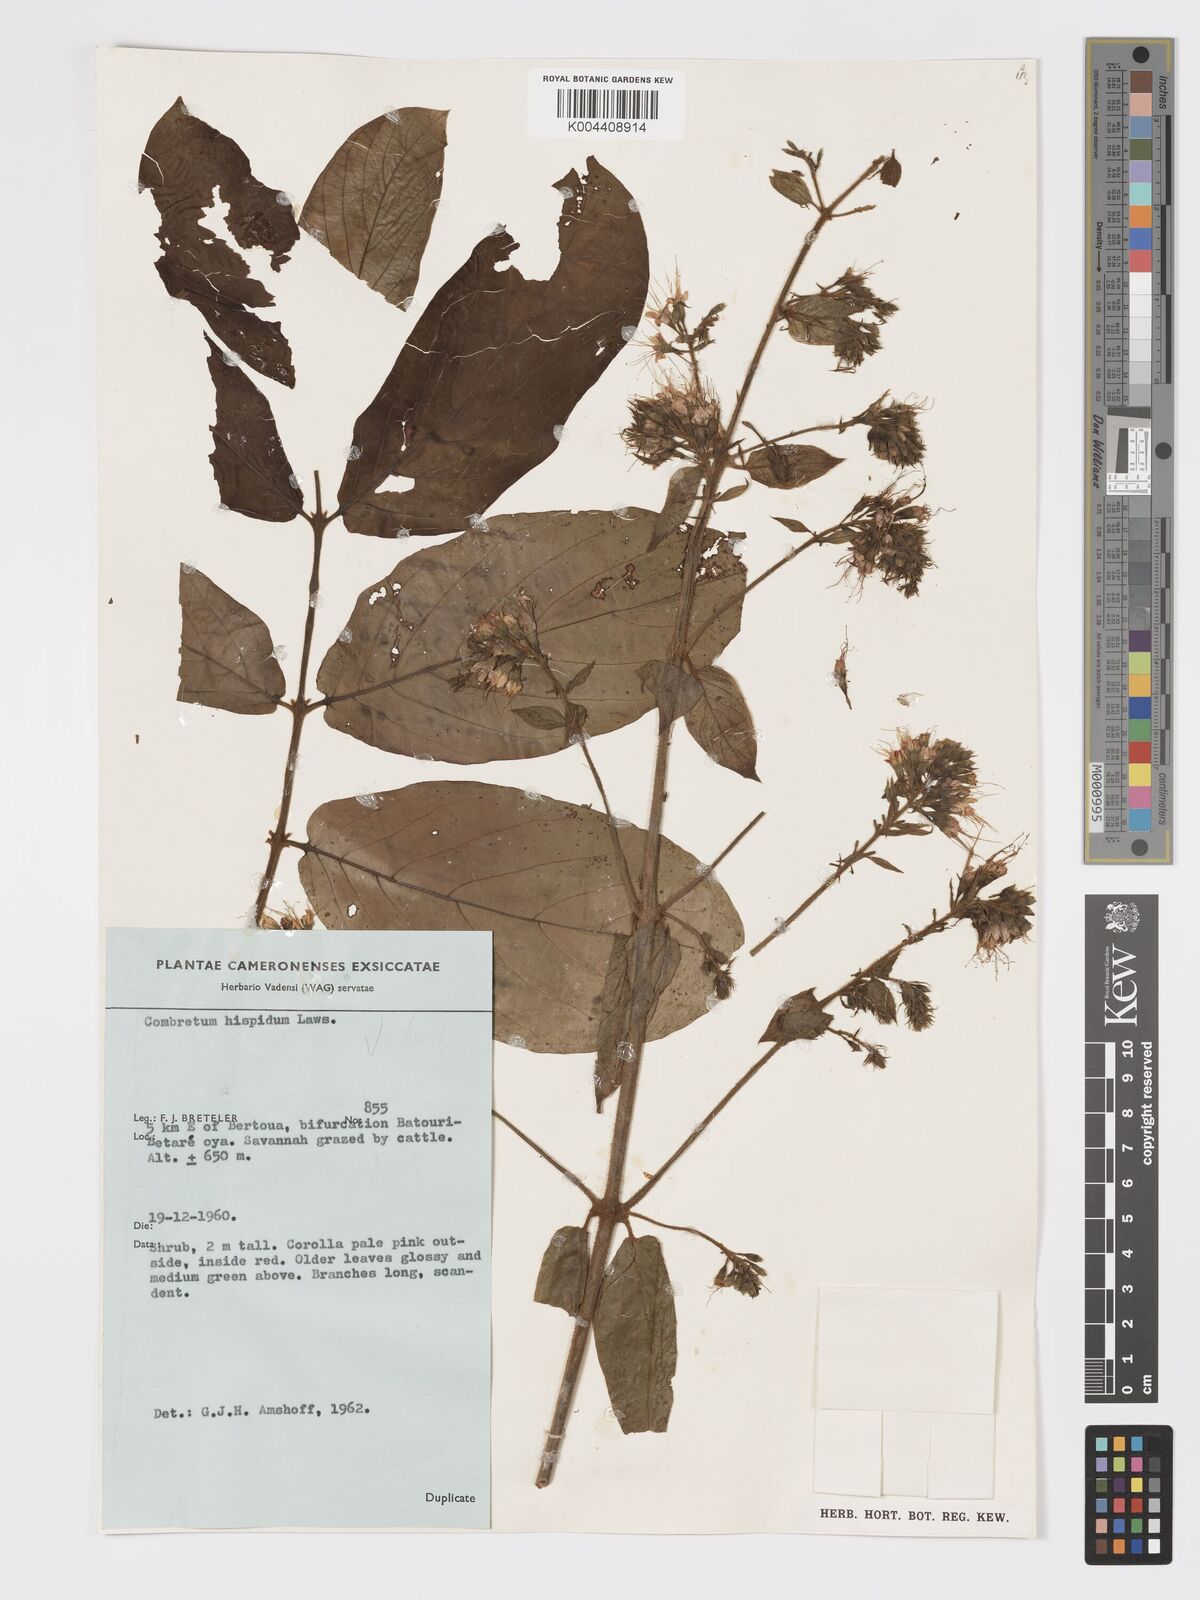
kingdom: Plantae
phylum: Tracheophyta
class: Magnoliopsida
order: Myrtales
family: Combretaceae
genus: Combretum
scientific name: Combretum
